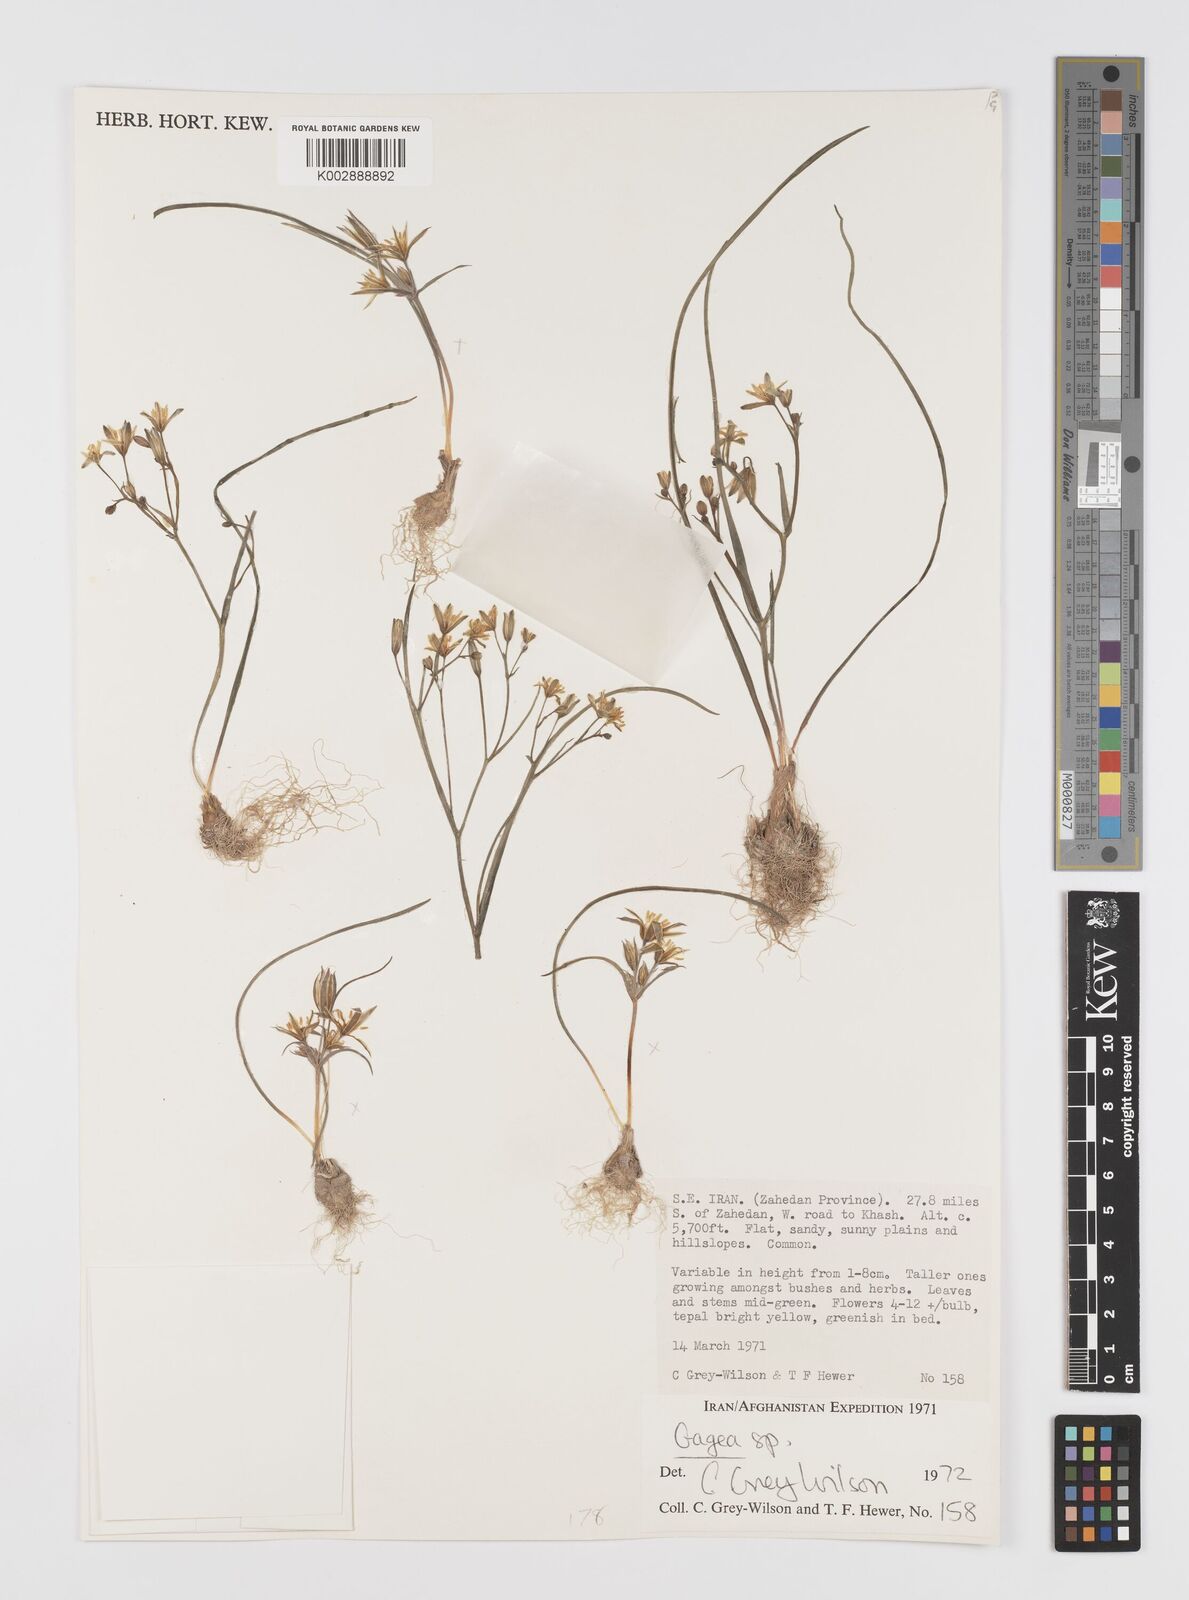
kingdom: Plantae
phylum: Tracheophyta
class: Liliopsida
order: Liliales
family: Liliaceae
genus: Gagea
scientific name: Gagea
